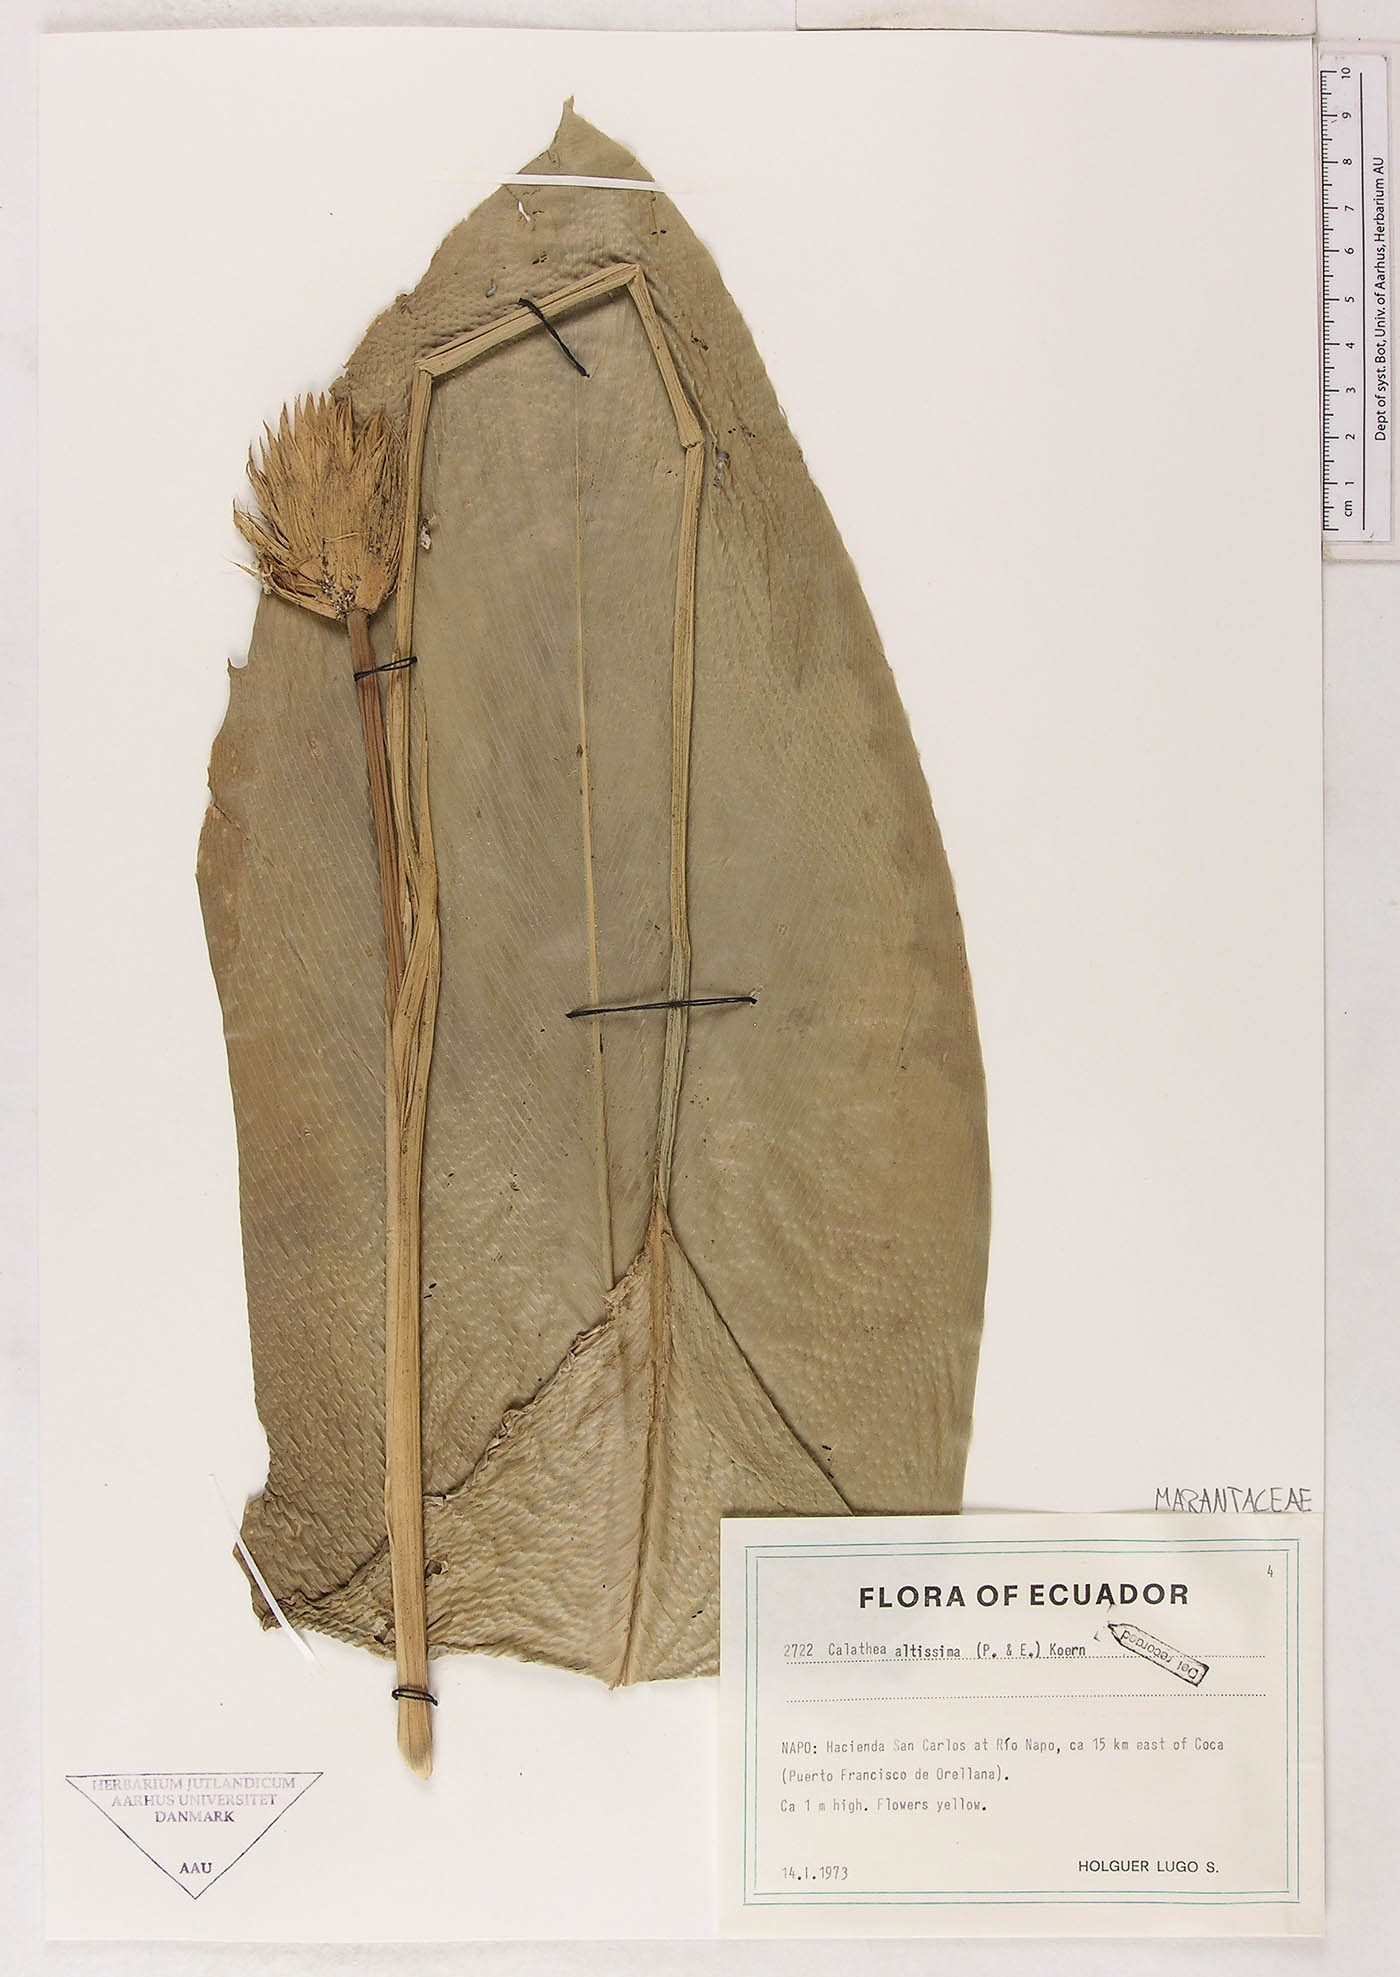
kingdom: Plantae
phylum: Tracheophyta
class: Liliopsida
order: Zingiberales
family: Marantaceae
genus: Goeppertia
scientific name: Goeppertia altissima
